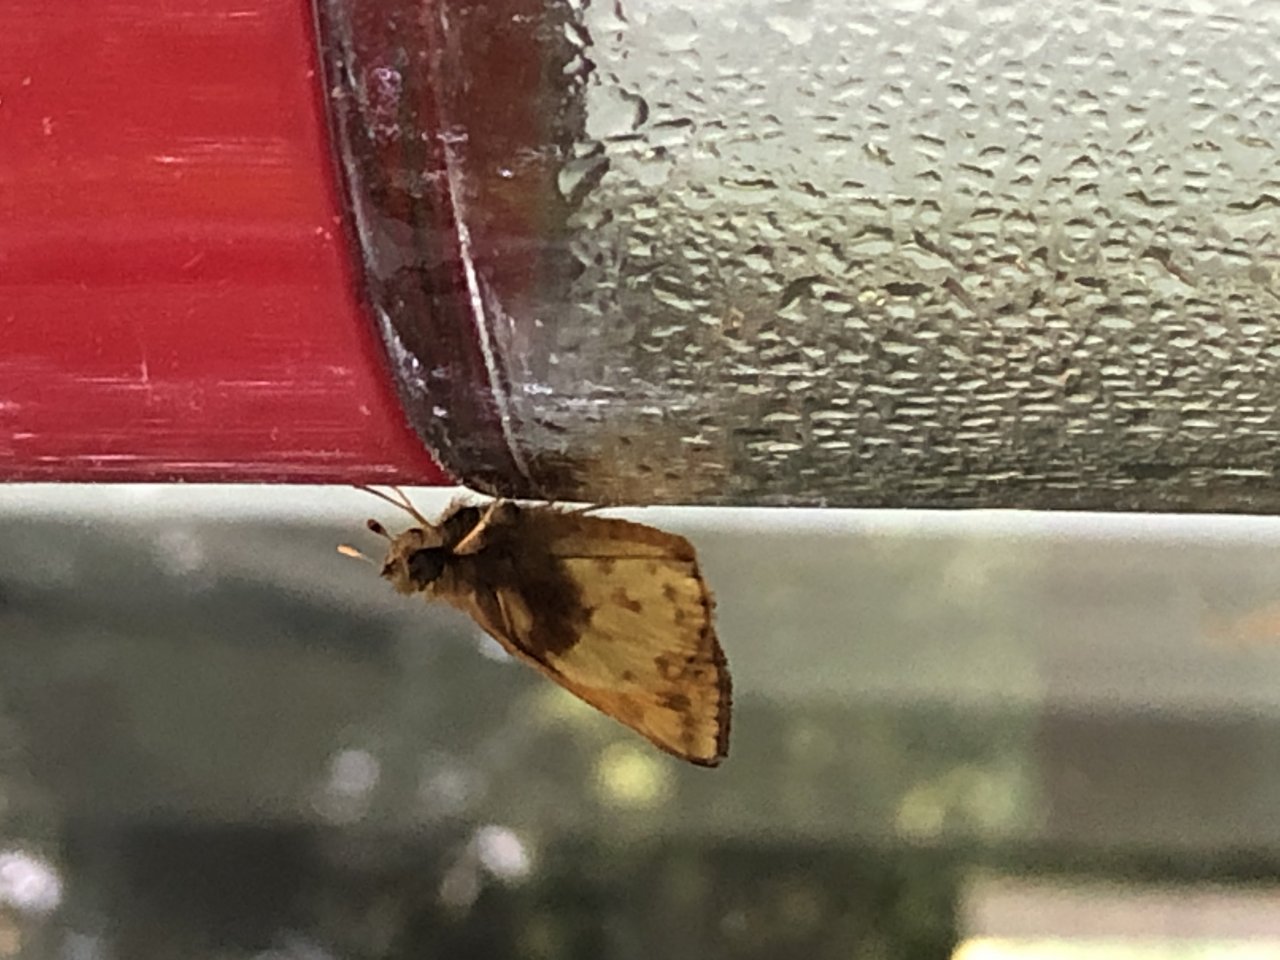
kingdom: Animalia
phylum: Arthropoda
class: Insecta
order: Lepidoptera
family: Hesperiidae
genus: Lon
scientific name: Lon zabulon
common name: Zabulon Skipper
